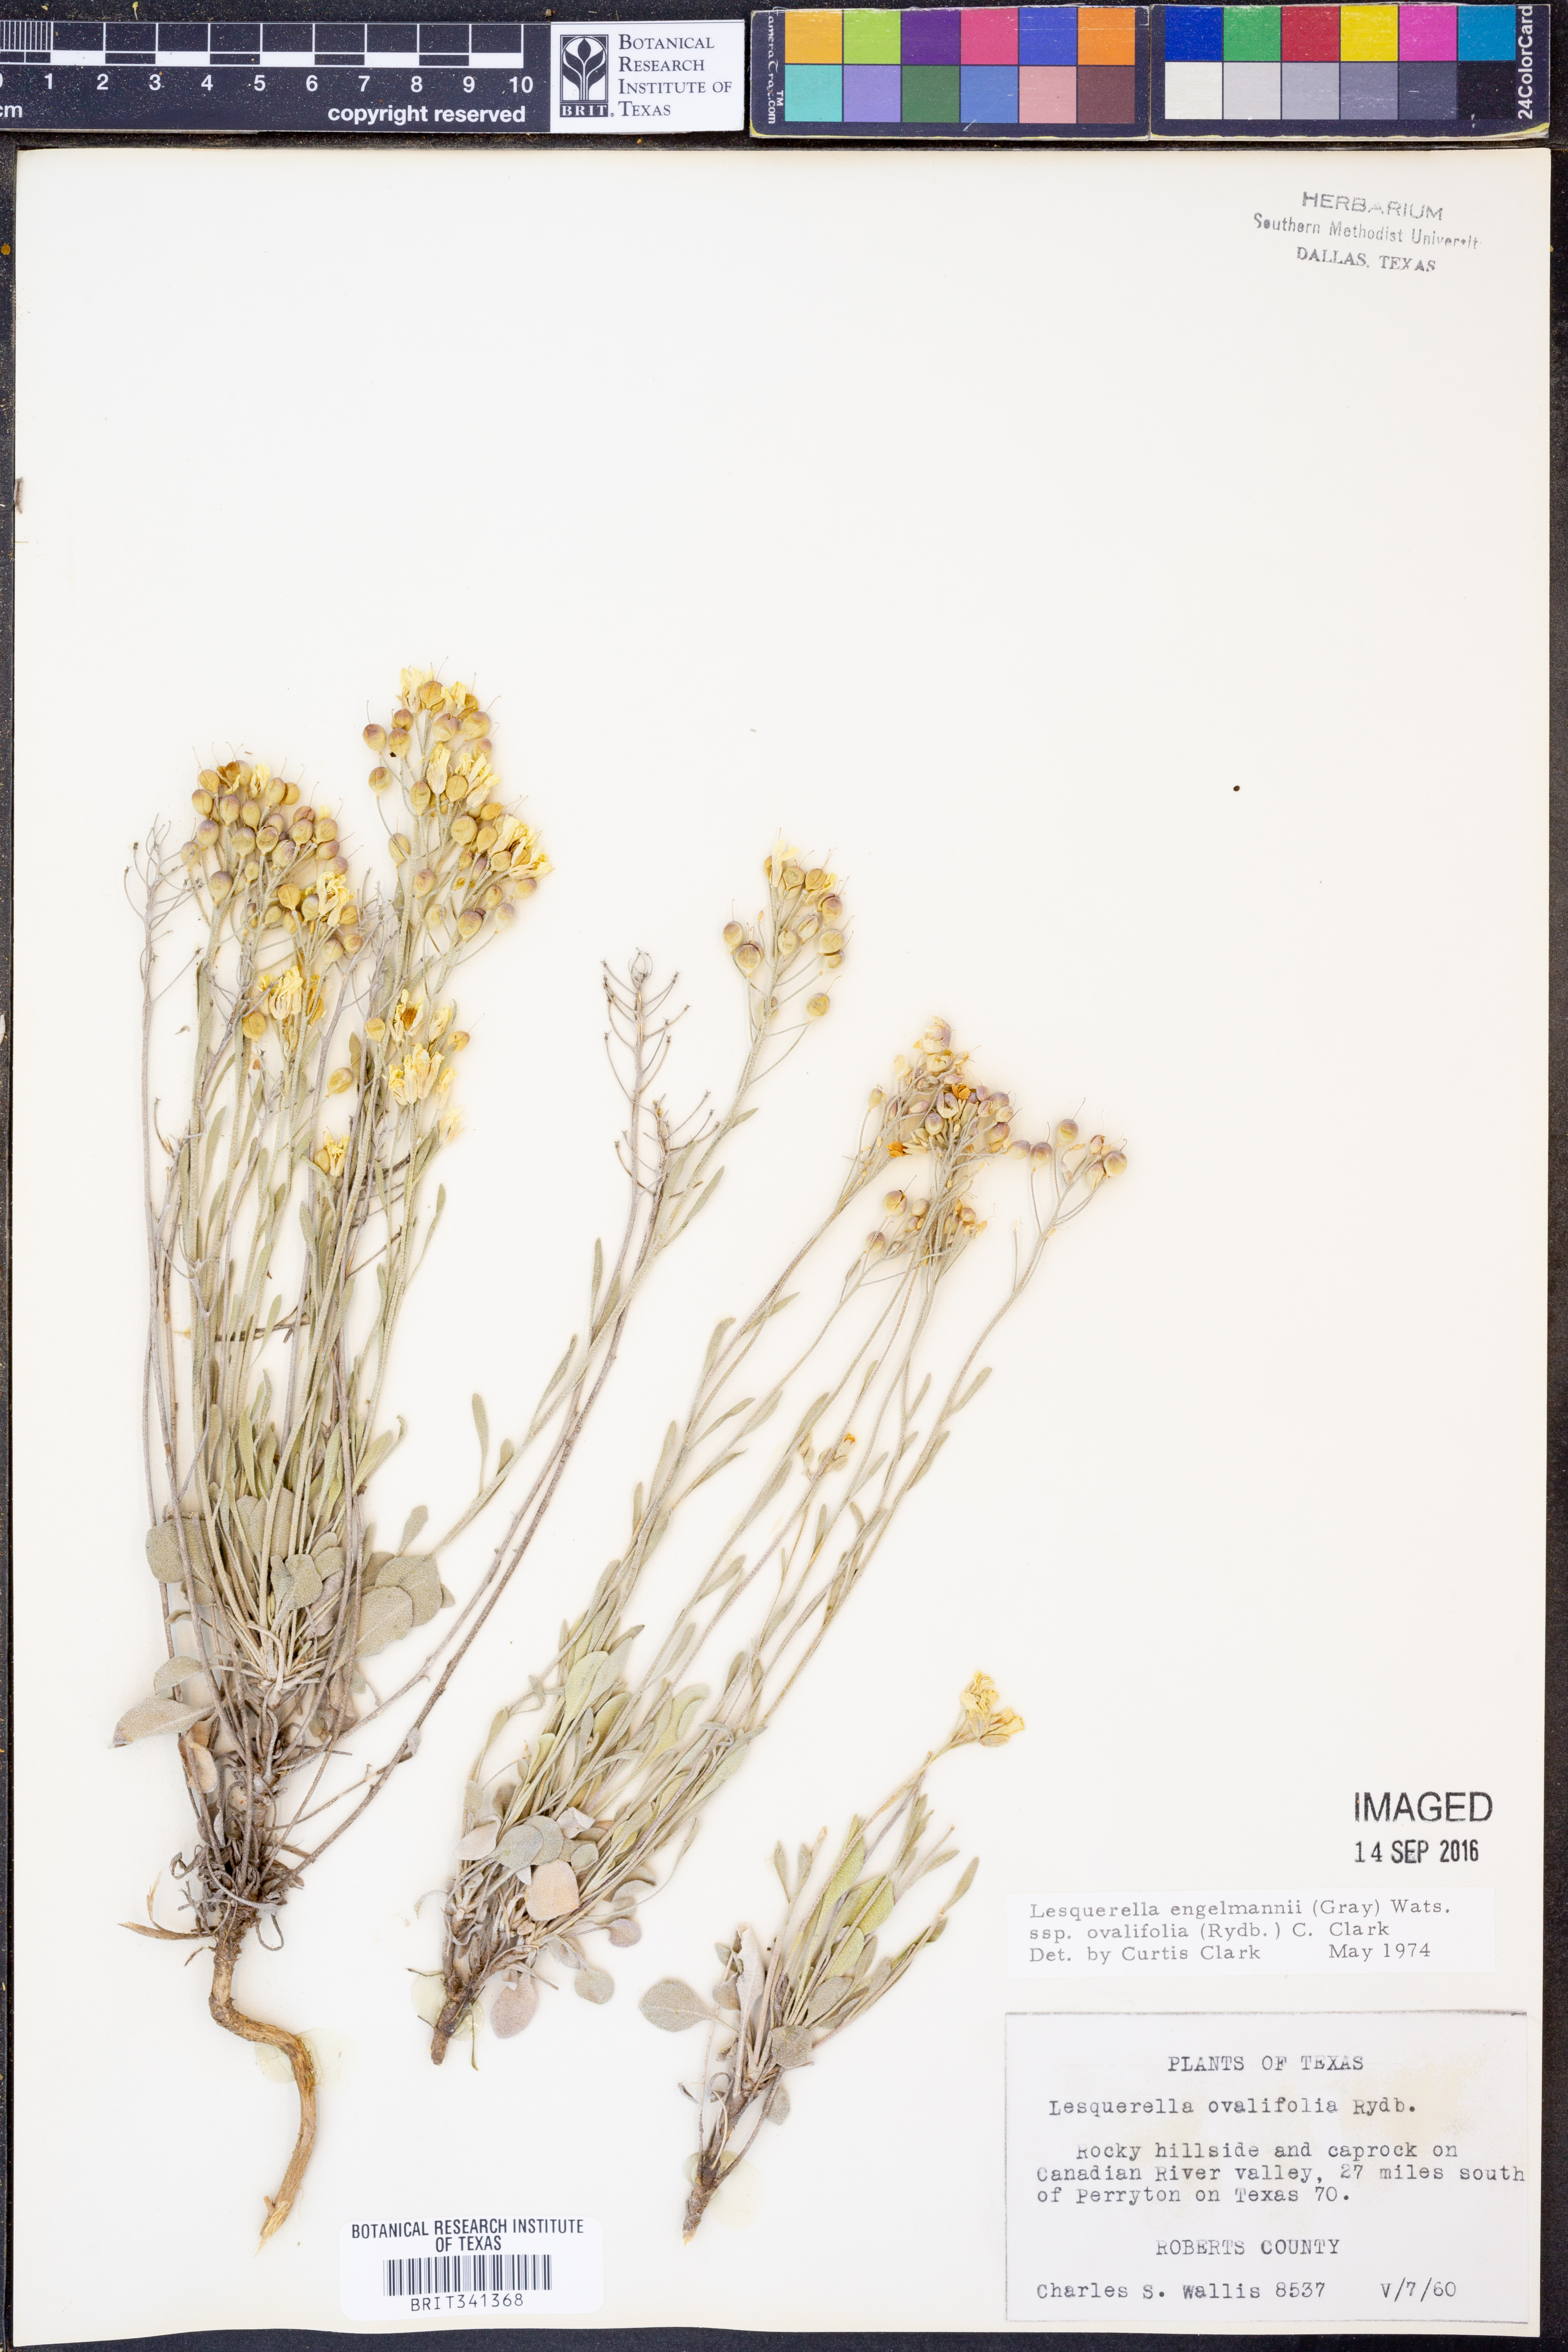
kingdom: Plantae
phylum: Tracheophyta
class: Magnoliopsida
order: Brassicales
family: Brassicaceae
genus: Physaria
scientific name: Physaria ovalifolia
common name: Round-leaf bladderpod
